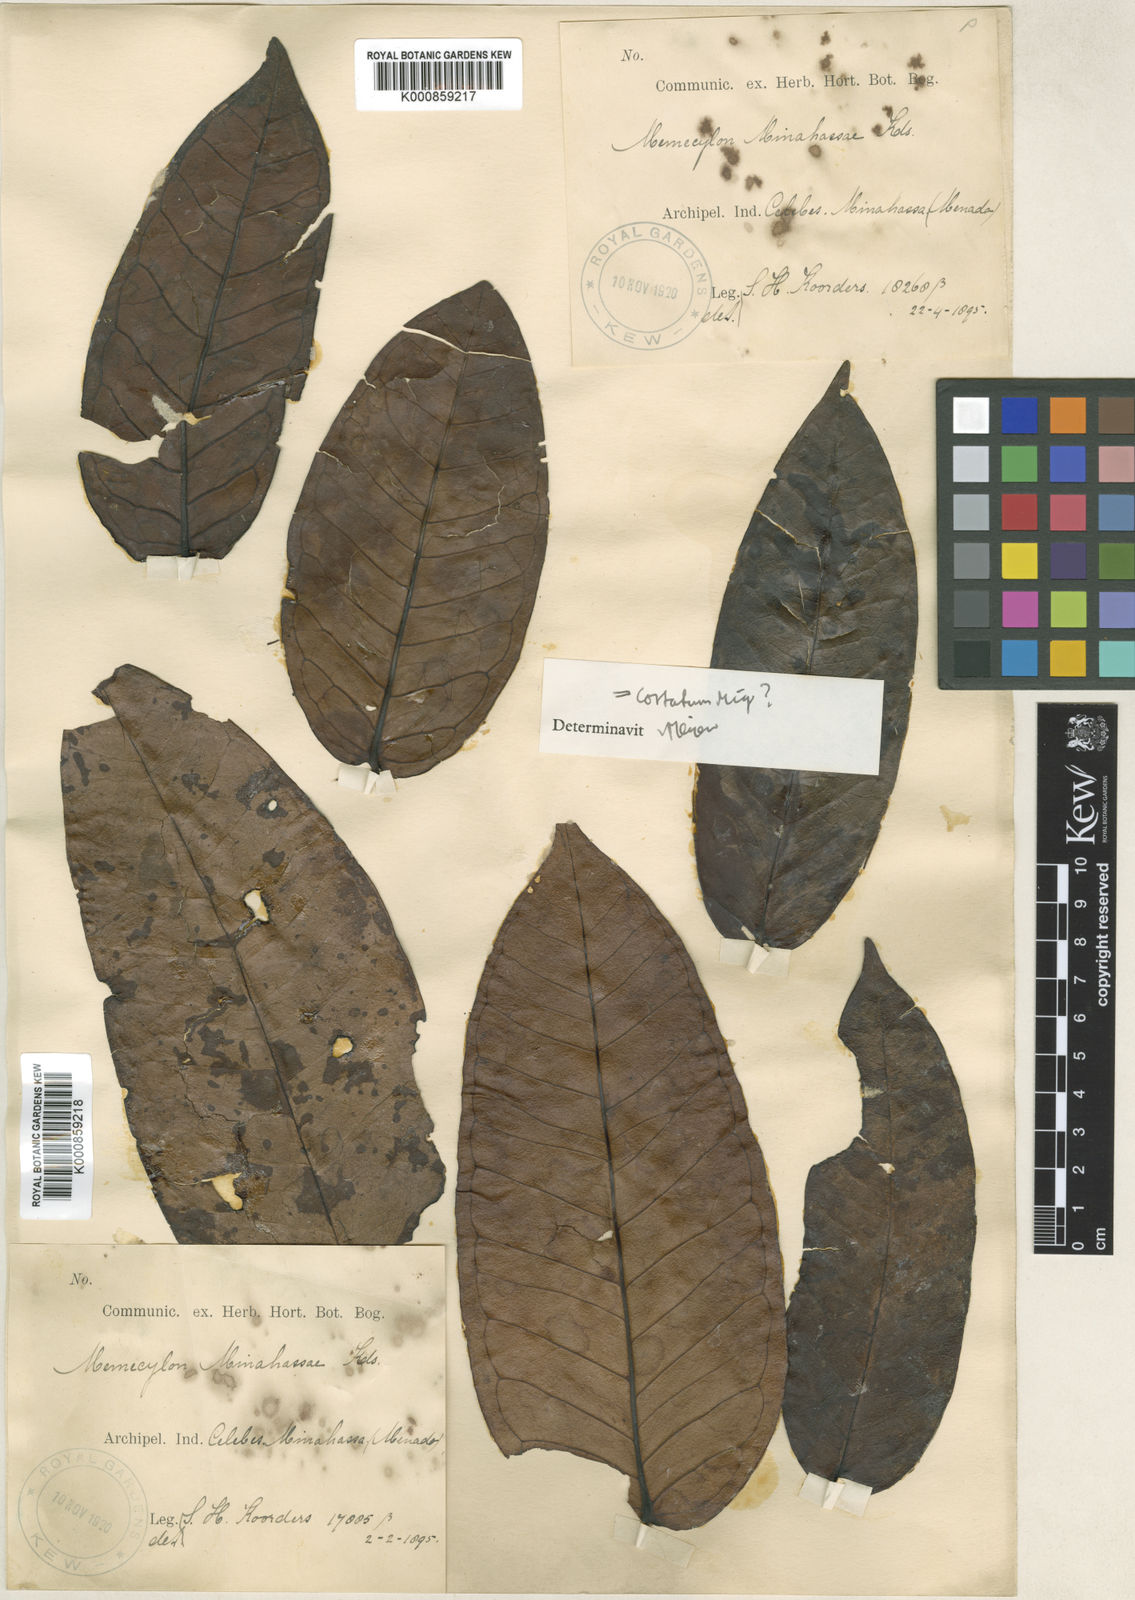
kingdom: Plantae
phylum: Tracheophyta
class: Magnoliopsida
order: Myrtales
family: Melastomataceae
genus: Memecylon
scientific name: Memecylon paniculatum
